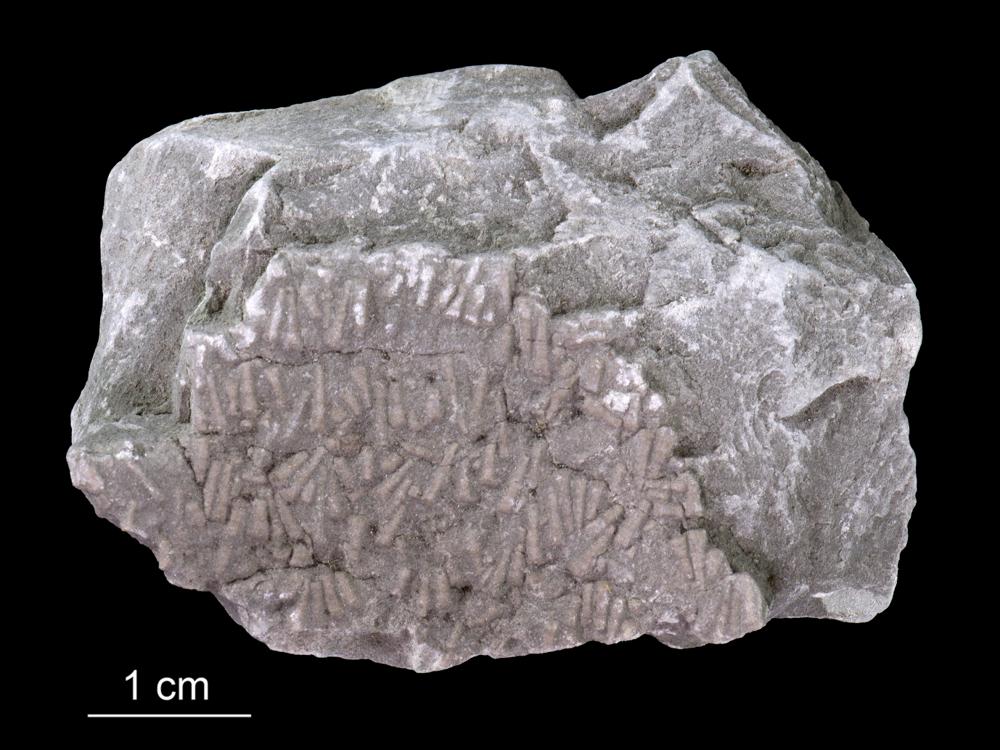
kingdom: Animalia
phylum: Annelida
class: Polychaeta
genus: Volborthella
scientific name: Volborthella tenuis
